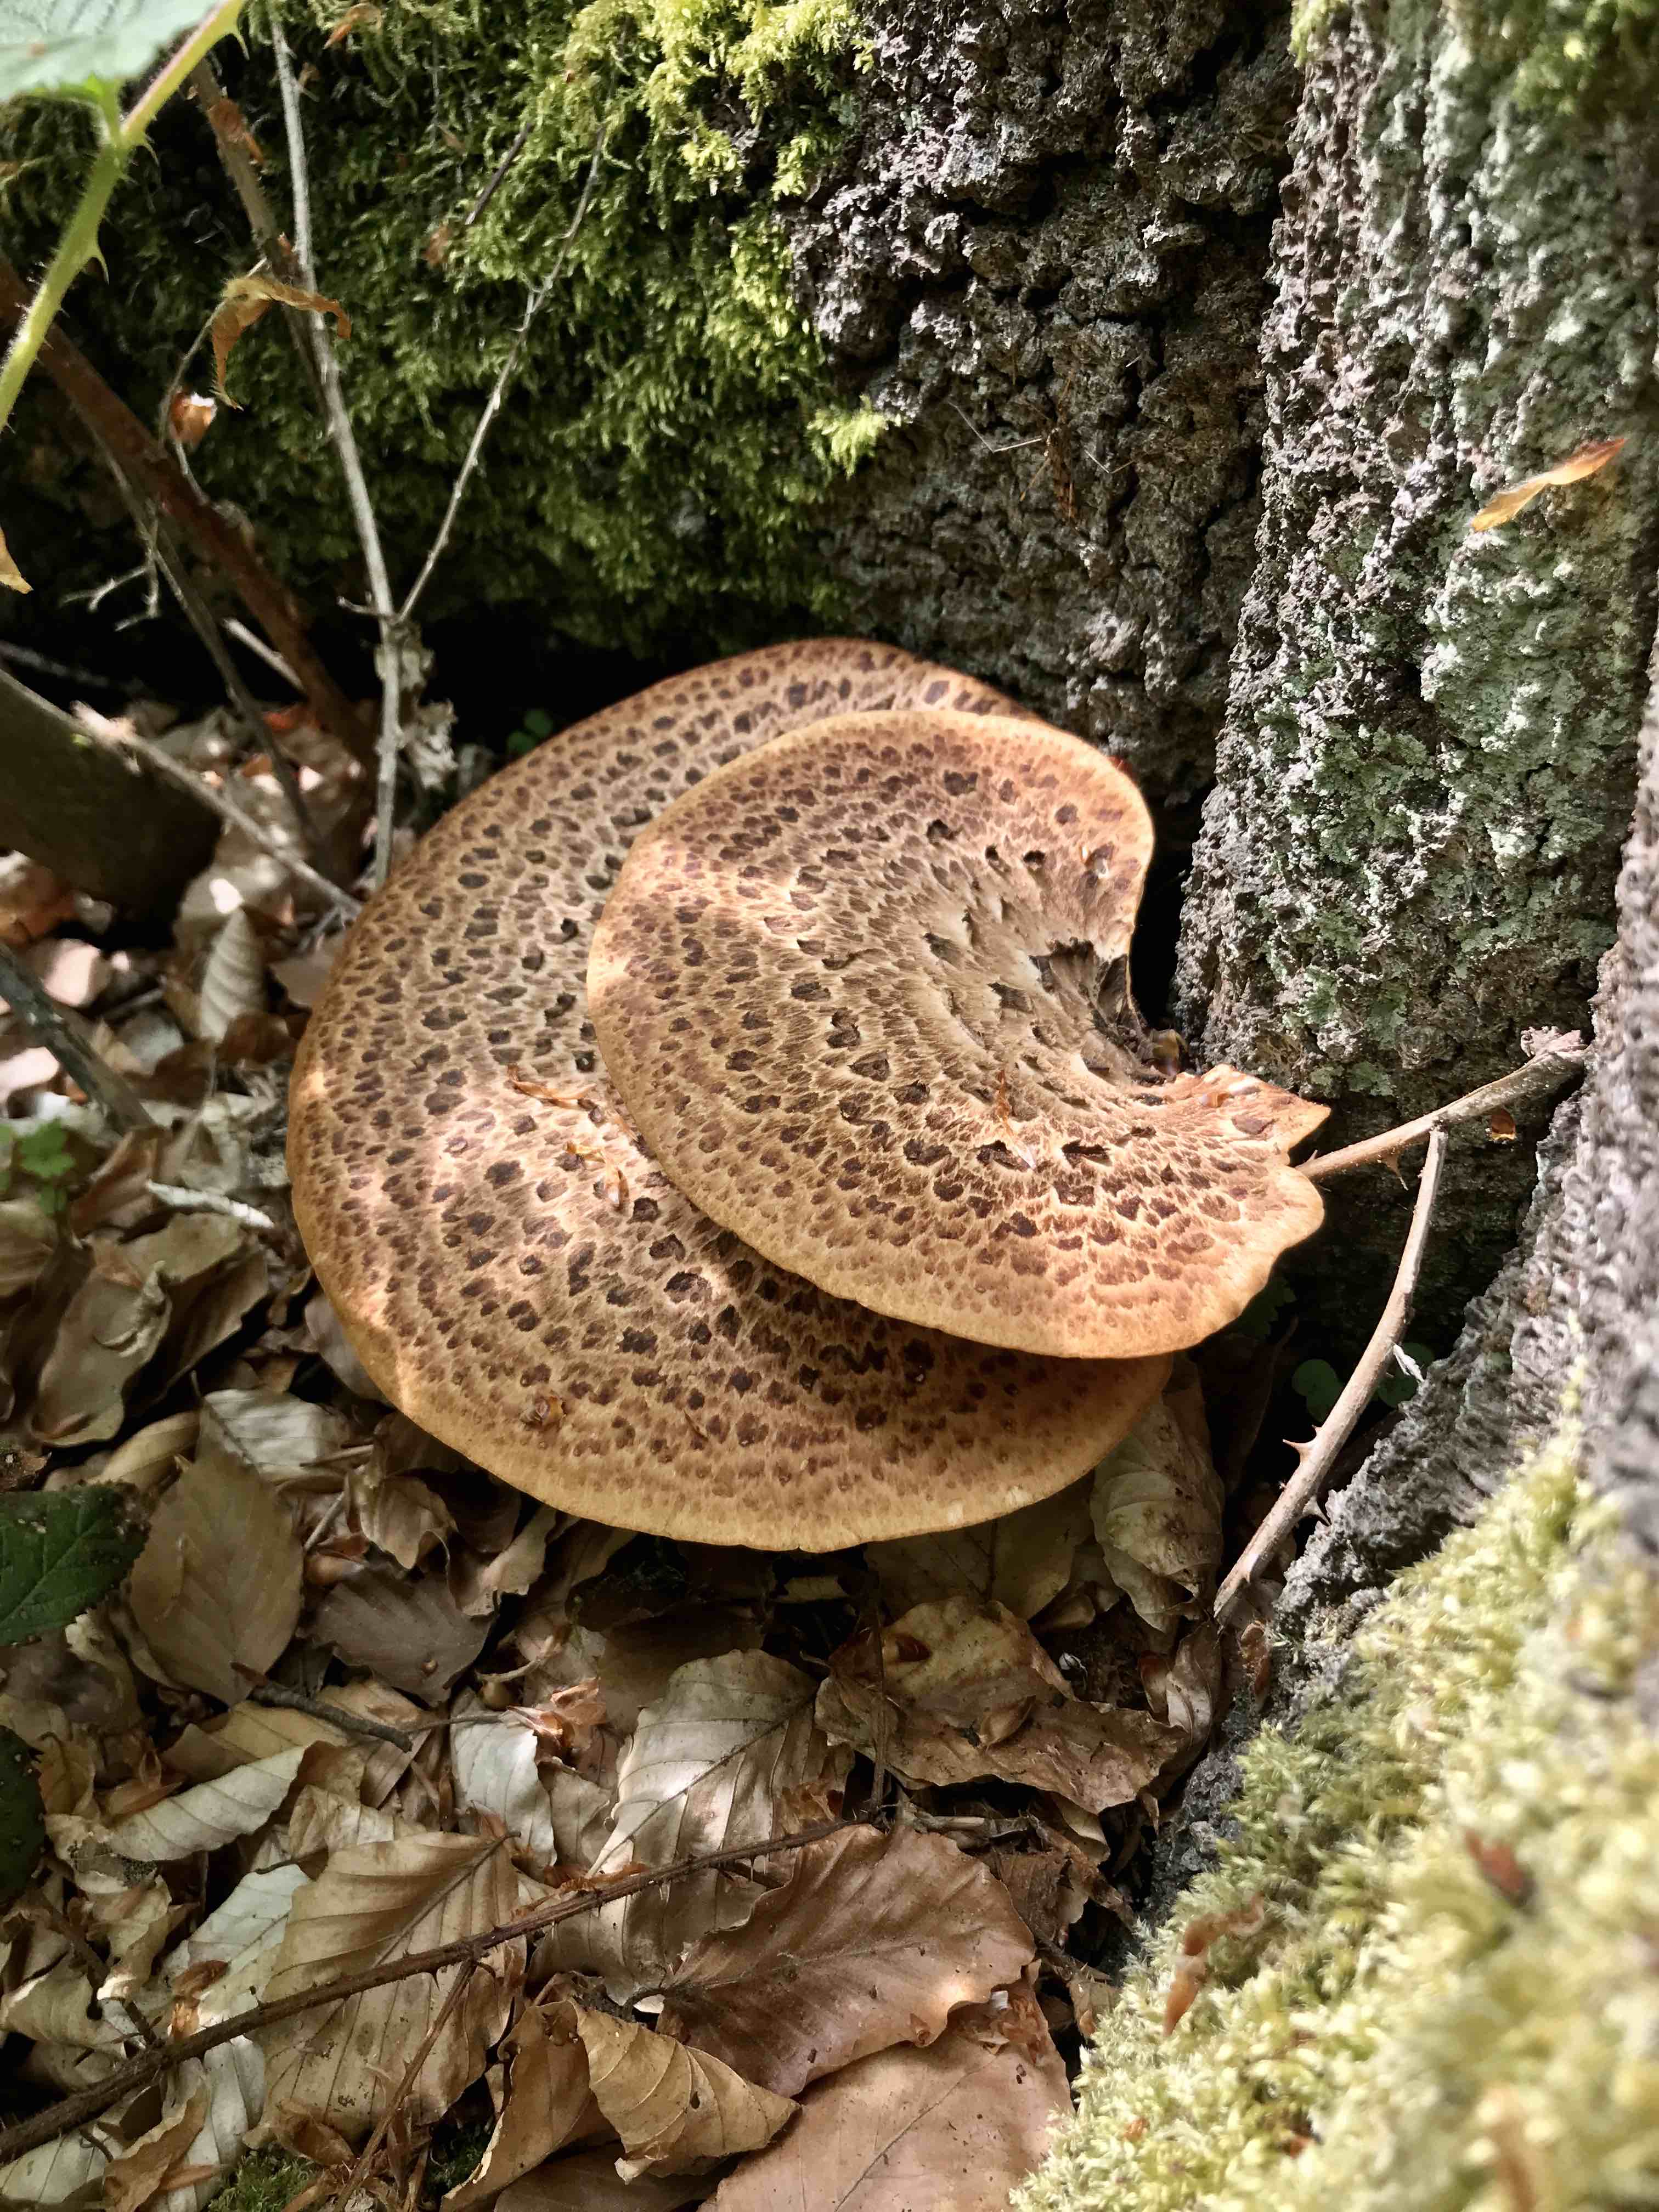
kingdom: Fungi
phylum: Basidiomycota
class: Agaricomycetes
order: Polyporales
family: Polyporaceae
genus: Cerioporus
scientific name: Cerioporus squamosus
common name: skællet stilkporesvamp
